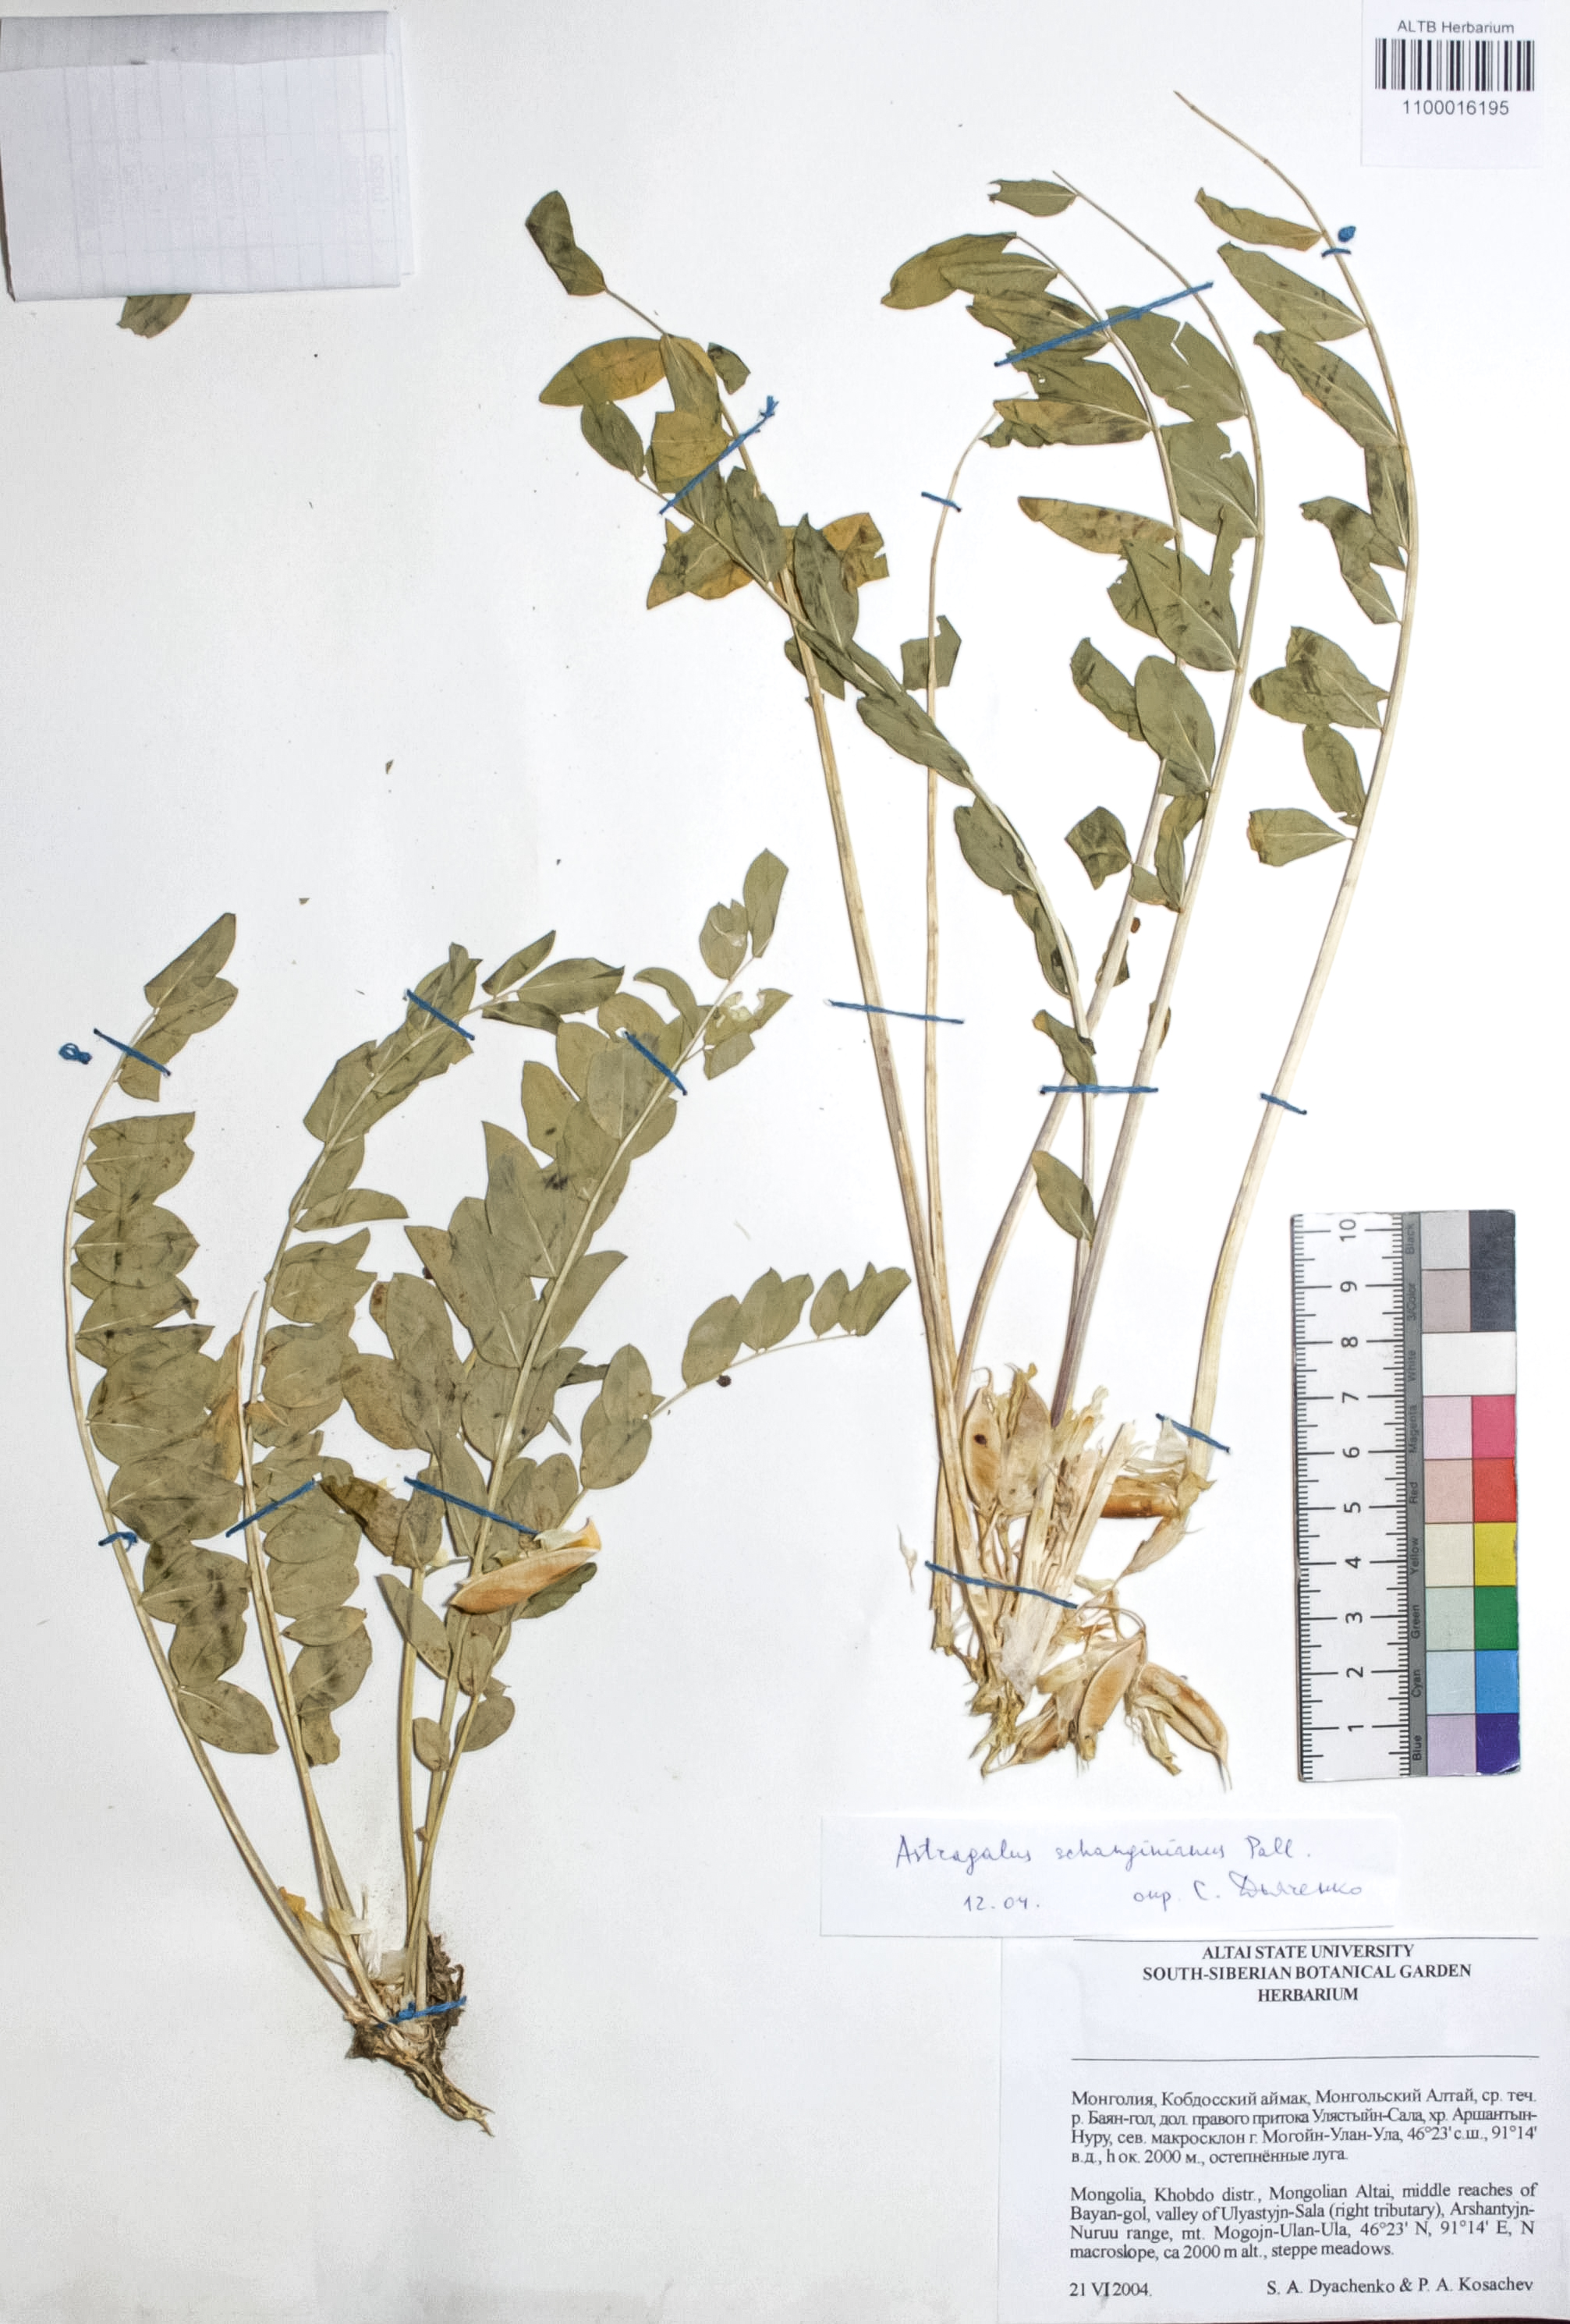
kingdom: Plantae
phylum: Tracheophyta
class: Magnoliopsida
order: Fabales
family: Fabaceae
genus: Astragalus
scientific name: Astragalus schanginianus
